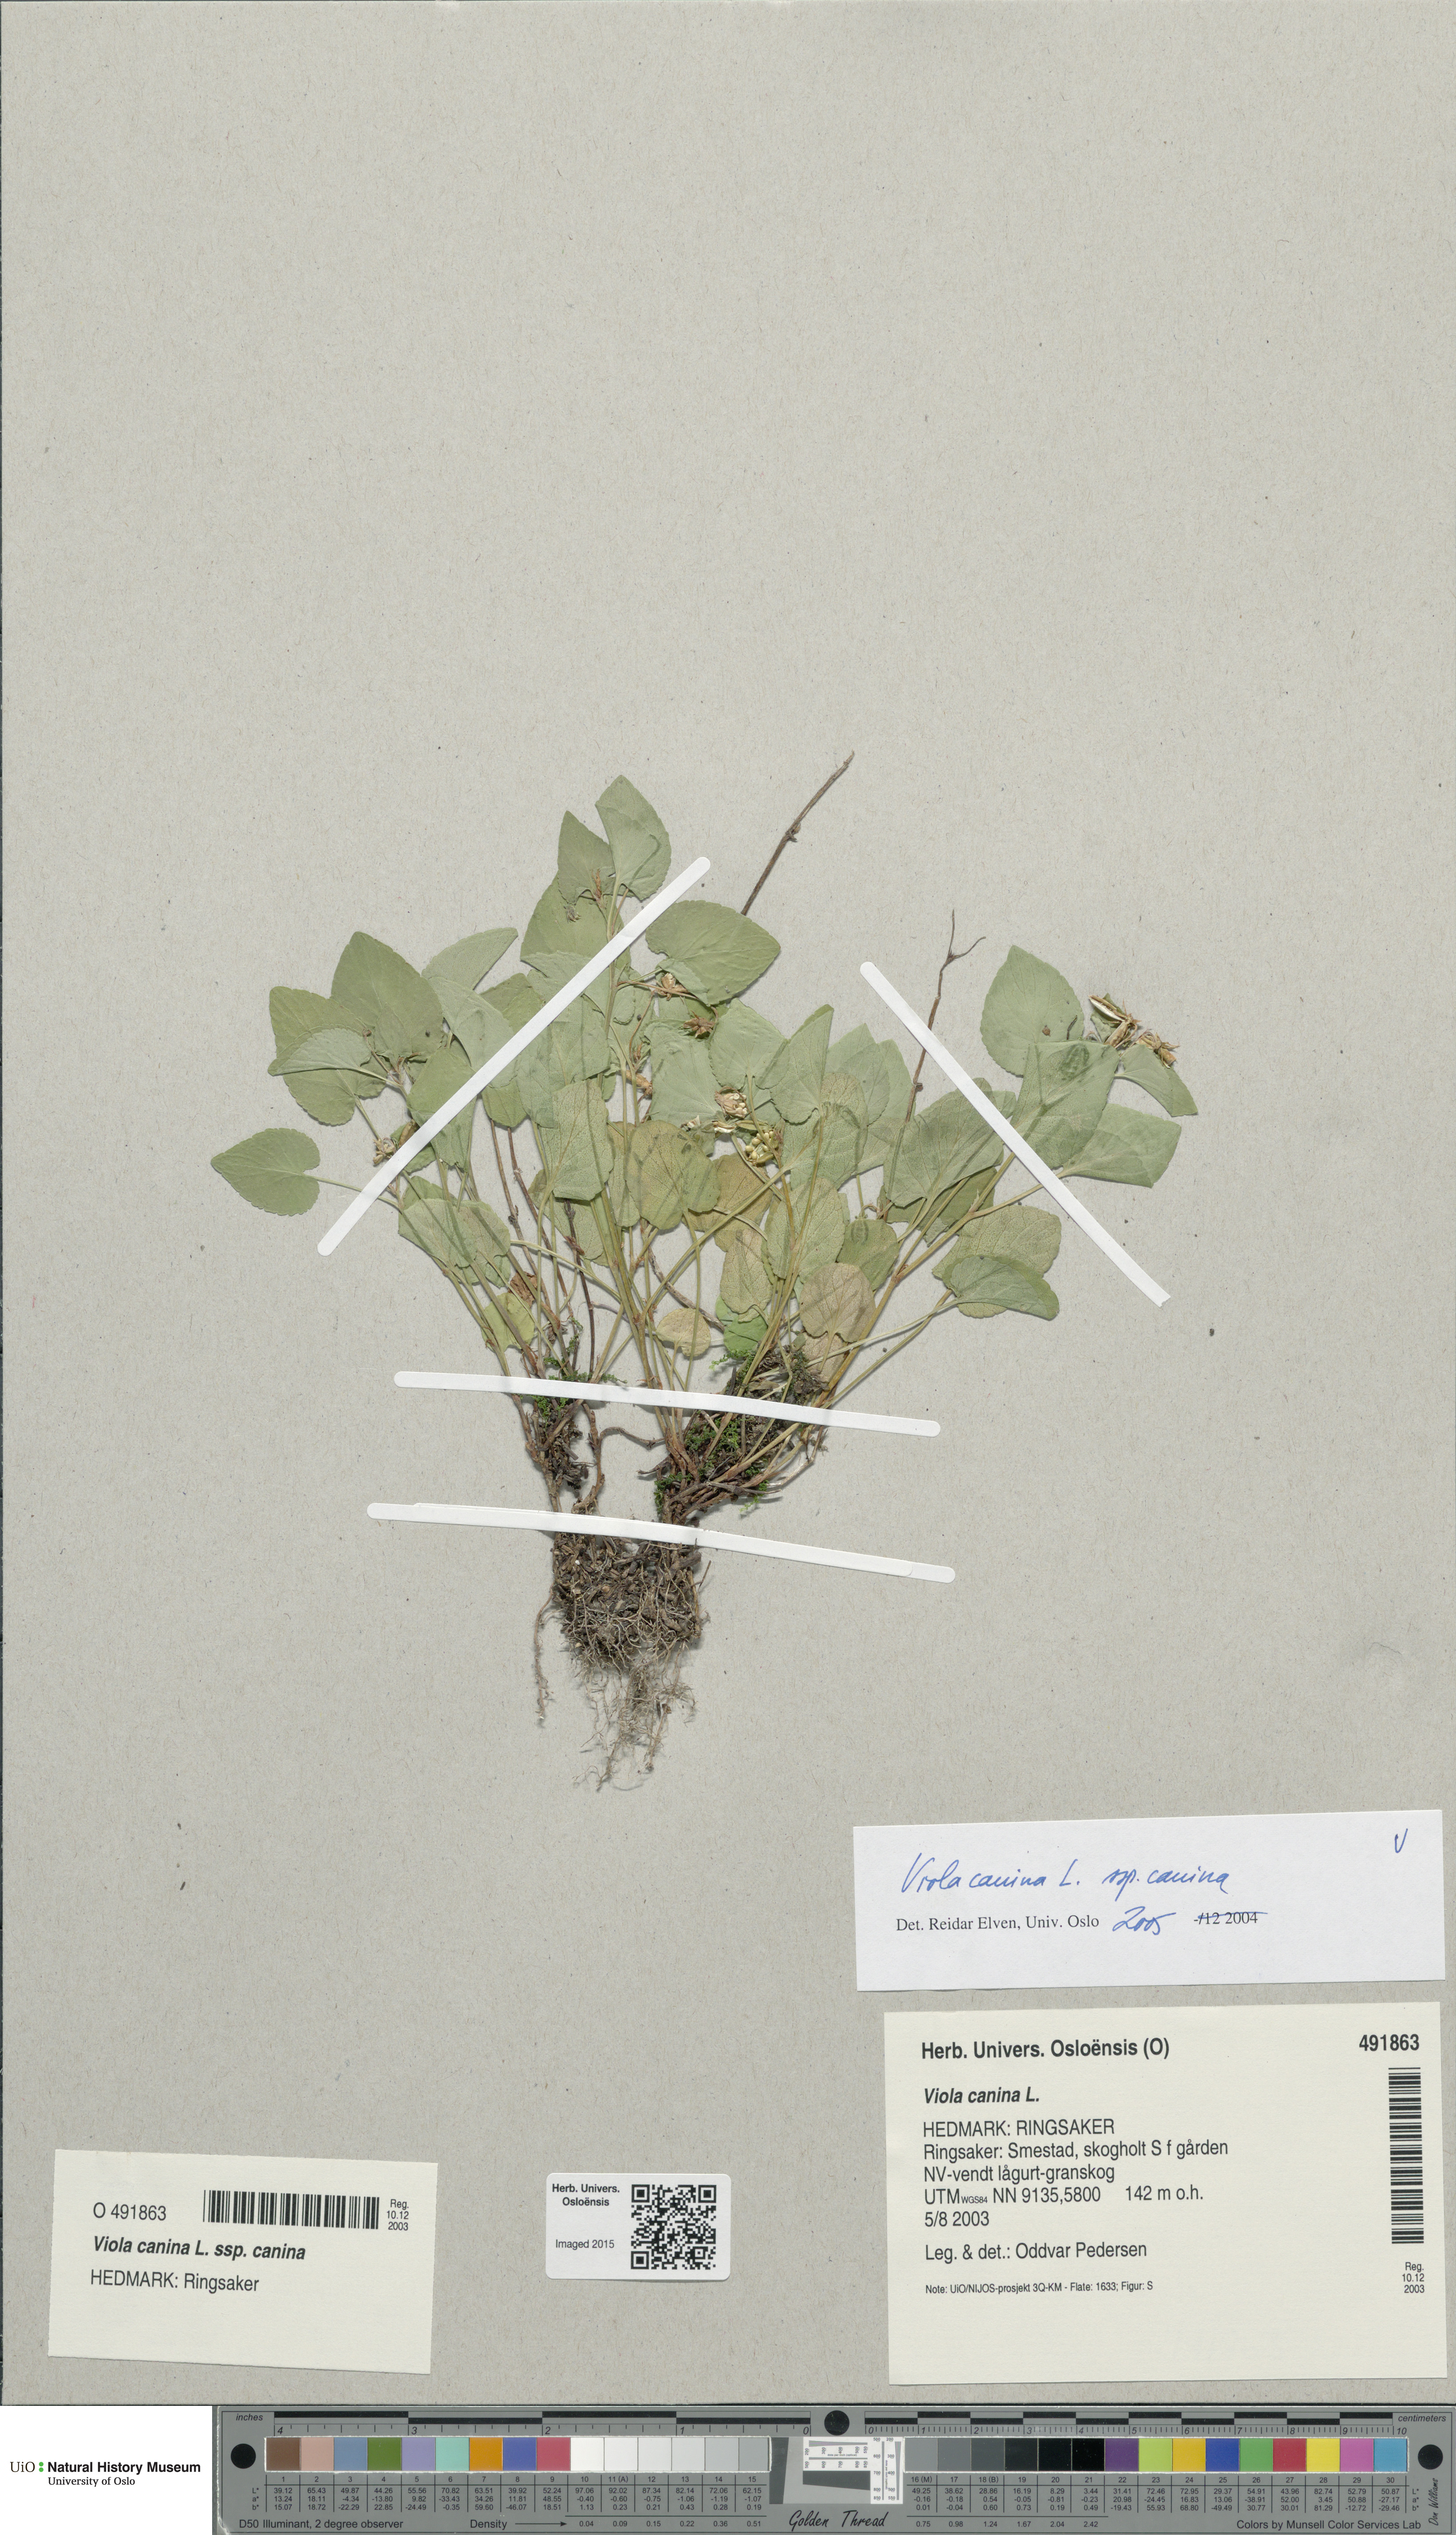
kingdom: Plantae
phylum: Tracheophyta
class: Magnoliopsida
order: Malpighiales
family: Violaceae
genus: Viola
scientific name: Viola canina
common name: Heath dog-violet
